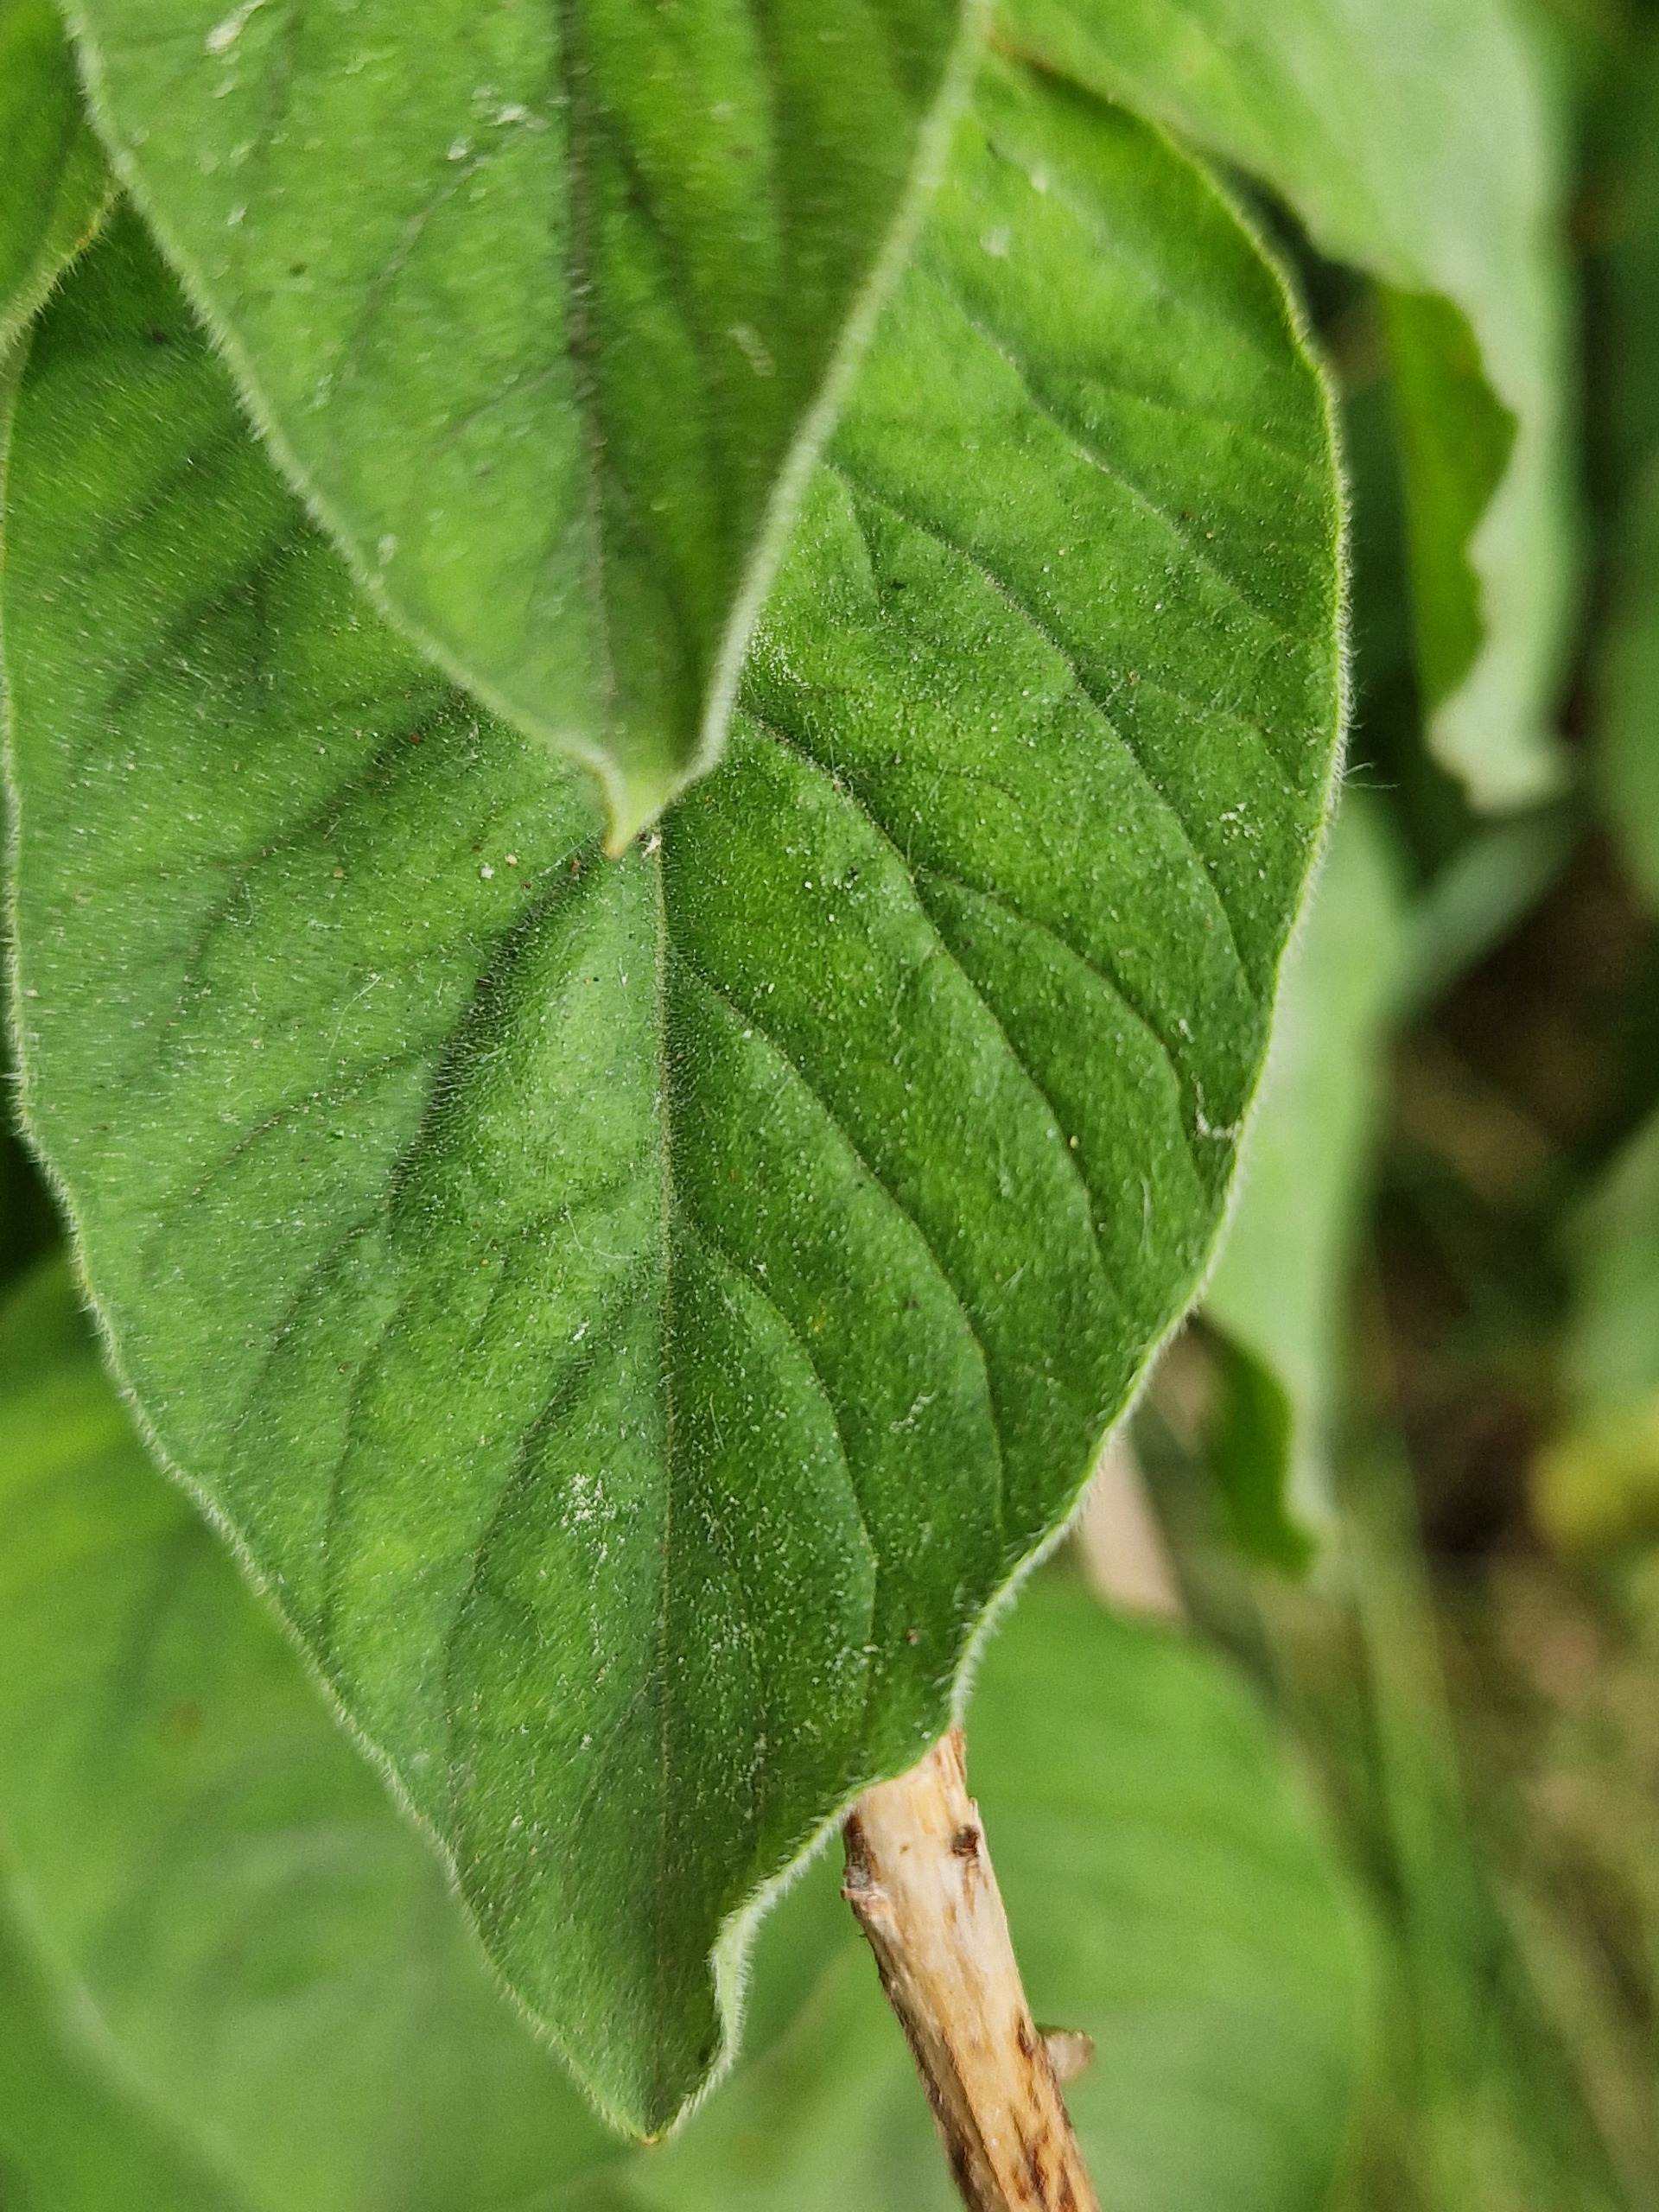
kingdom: Plantae
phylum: Tracheophyta
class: Magnoliopsida
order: Ericales
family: Primulaceae
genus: Lysimachia
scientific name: Lysimachia punctata
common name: Prikbladet fredløs
